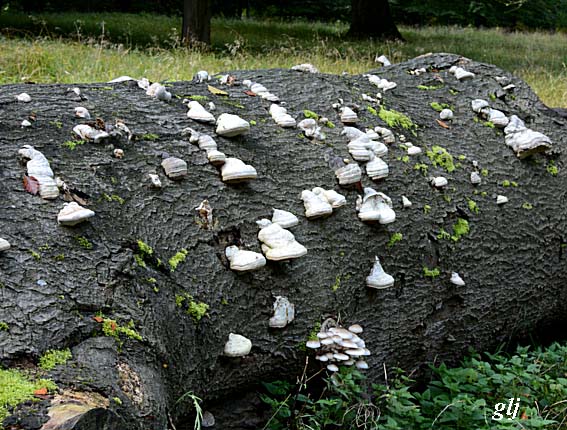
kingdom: Fungi
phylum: Basidiomycota
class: Agaricomycetes
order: Polyporales
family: Polyporaceae
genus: Fomes
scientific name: Fomes fomentarius
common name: tøndersvamp
